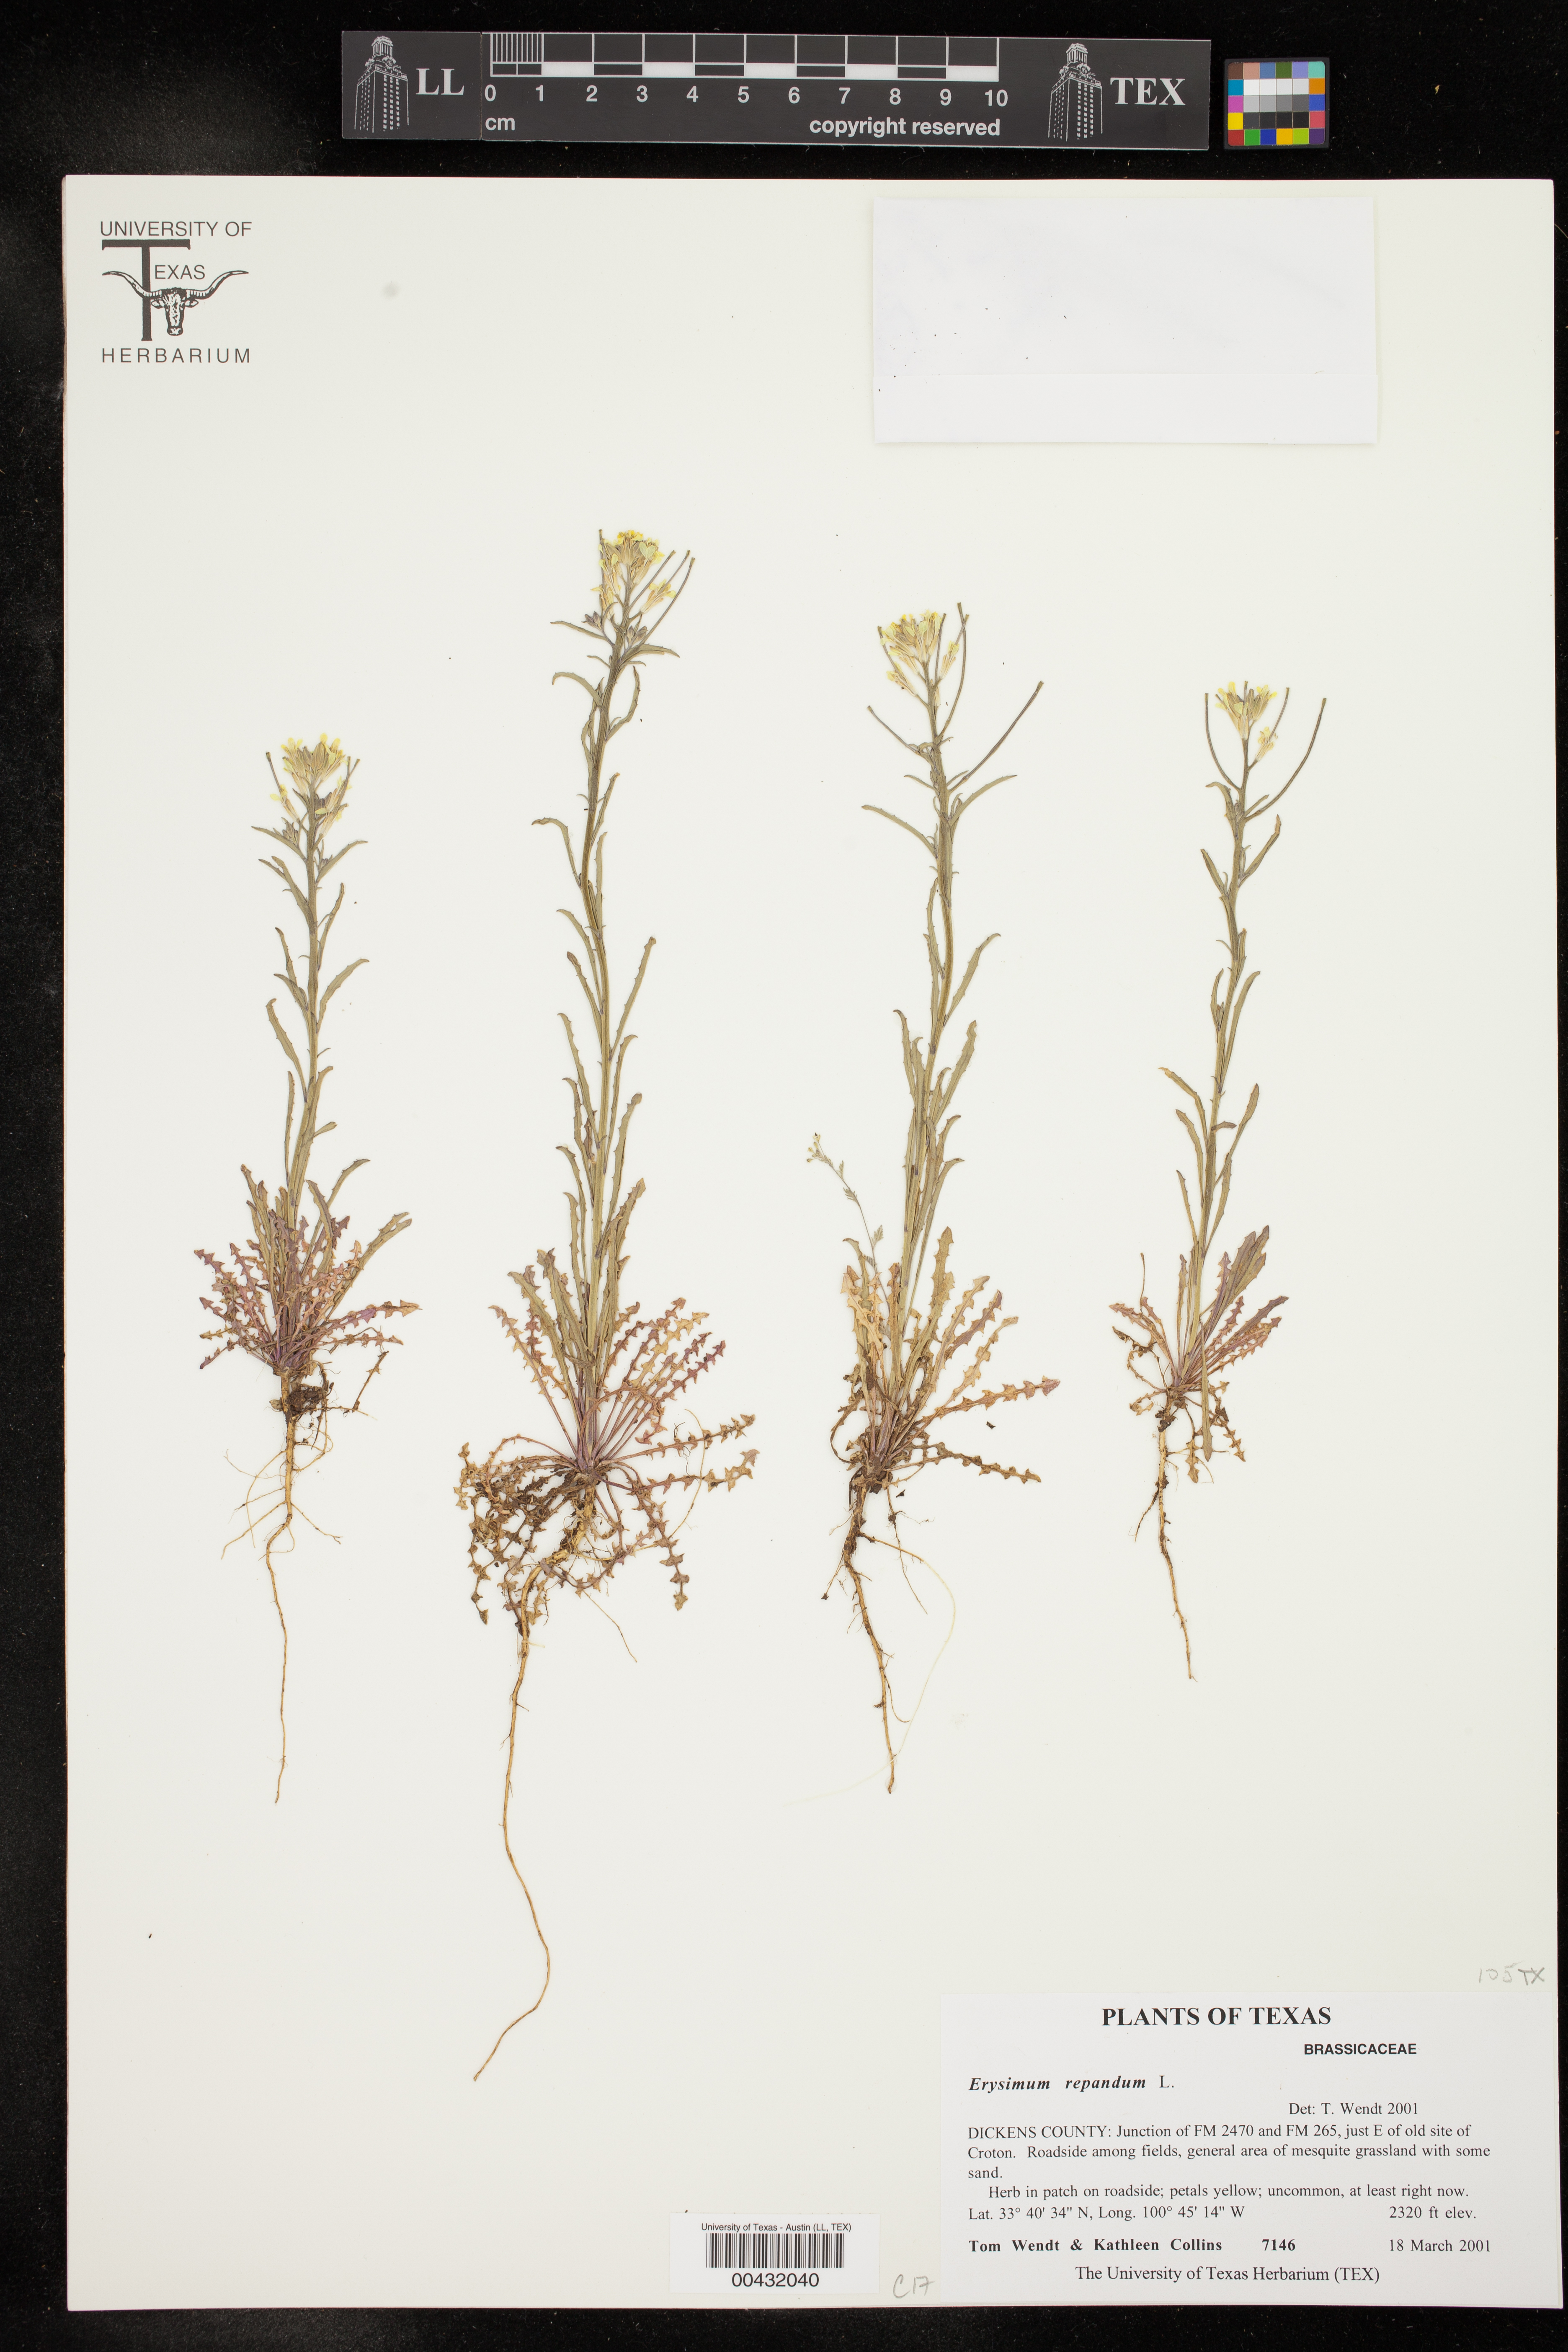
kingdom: Plantae
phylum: Tracheophyta
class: Magnoliopsida
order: Brassicales
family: Brassicaceae
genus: Erysimum
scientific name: Erysimum repandum
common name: Spreading wallflower
